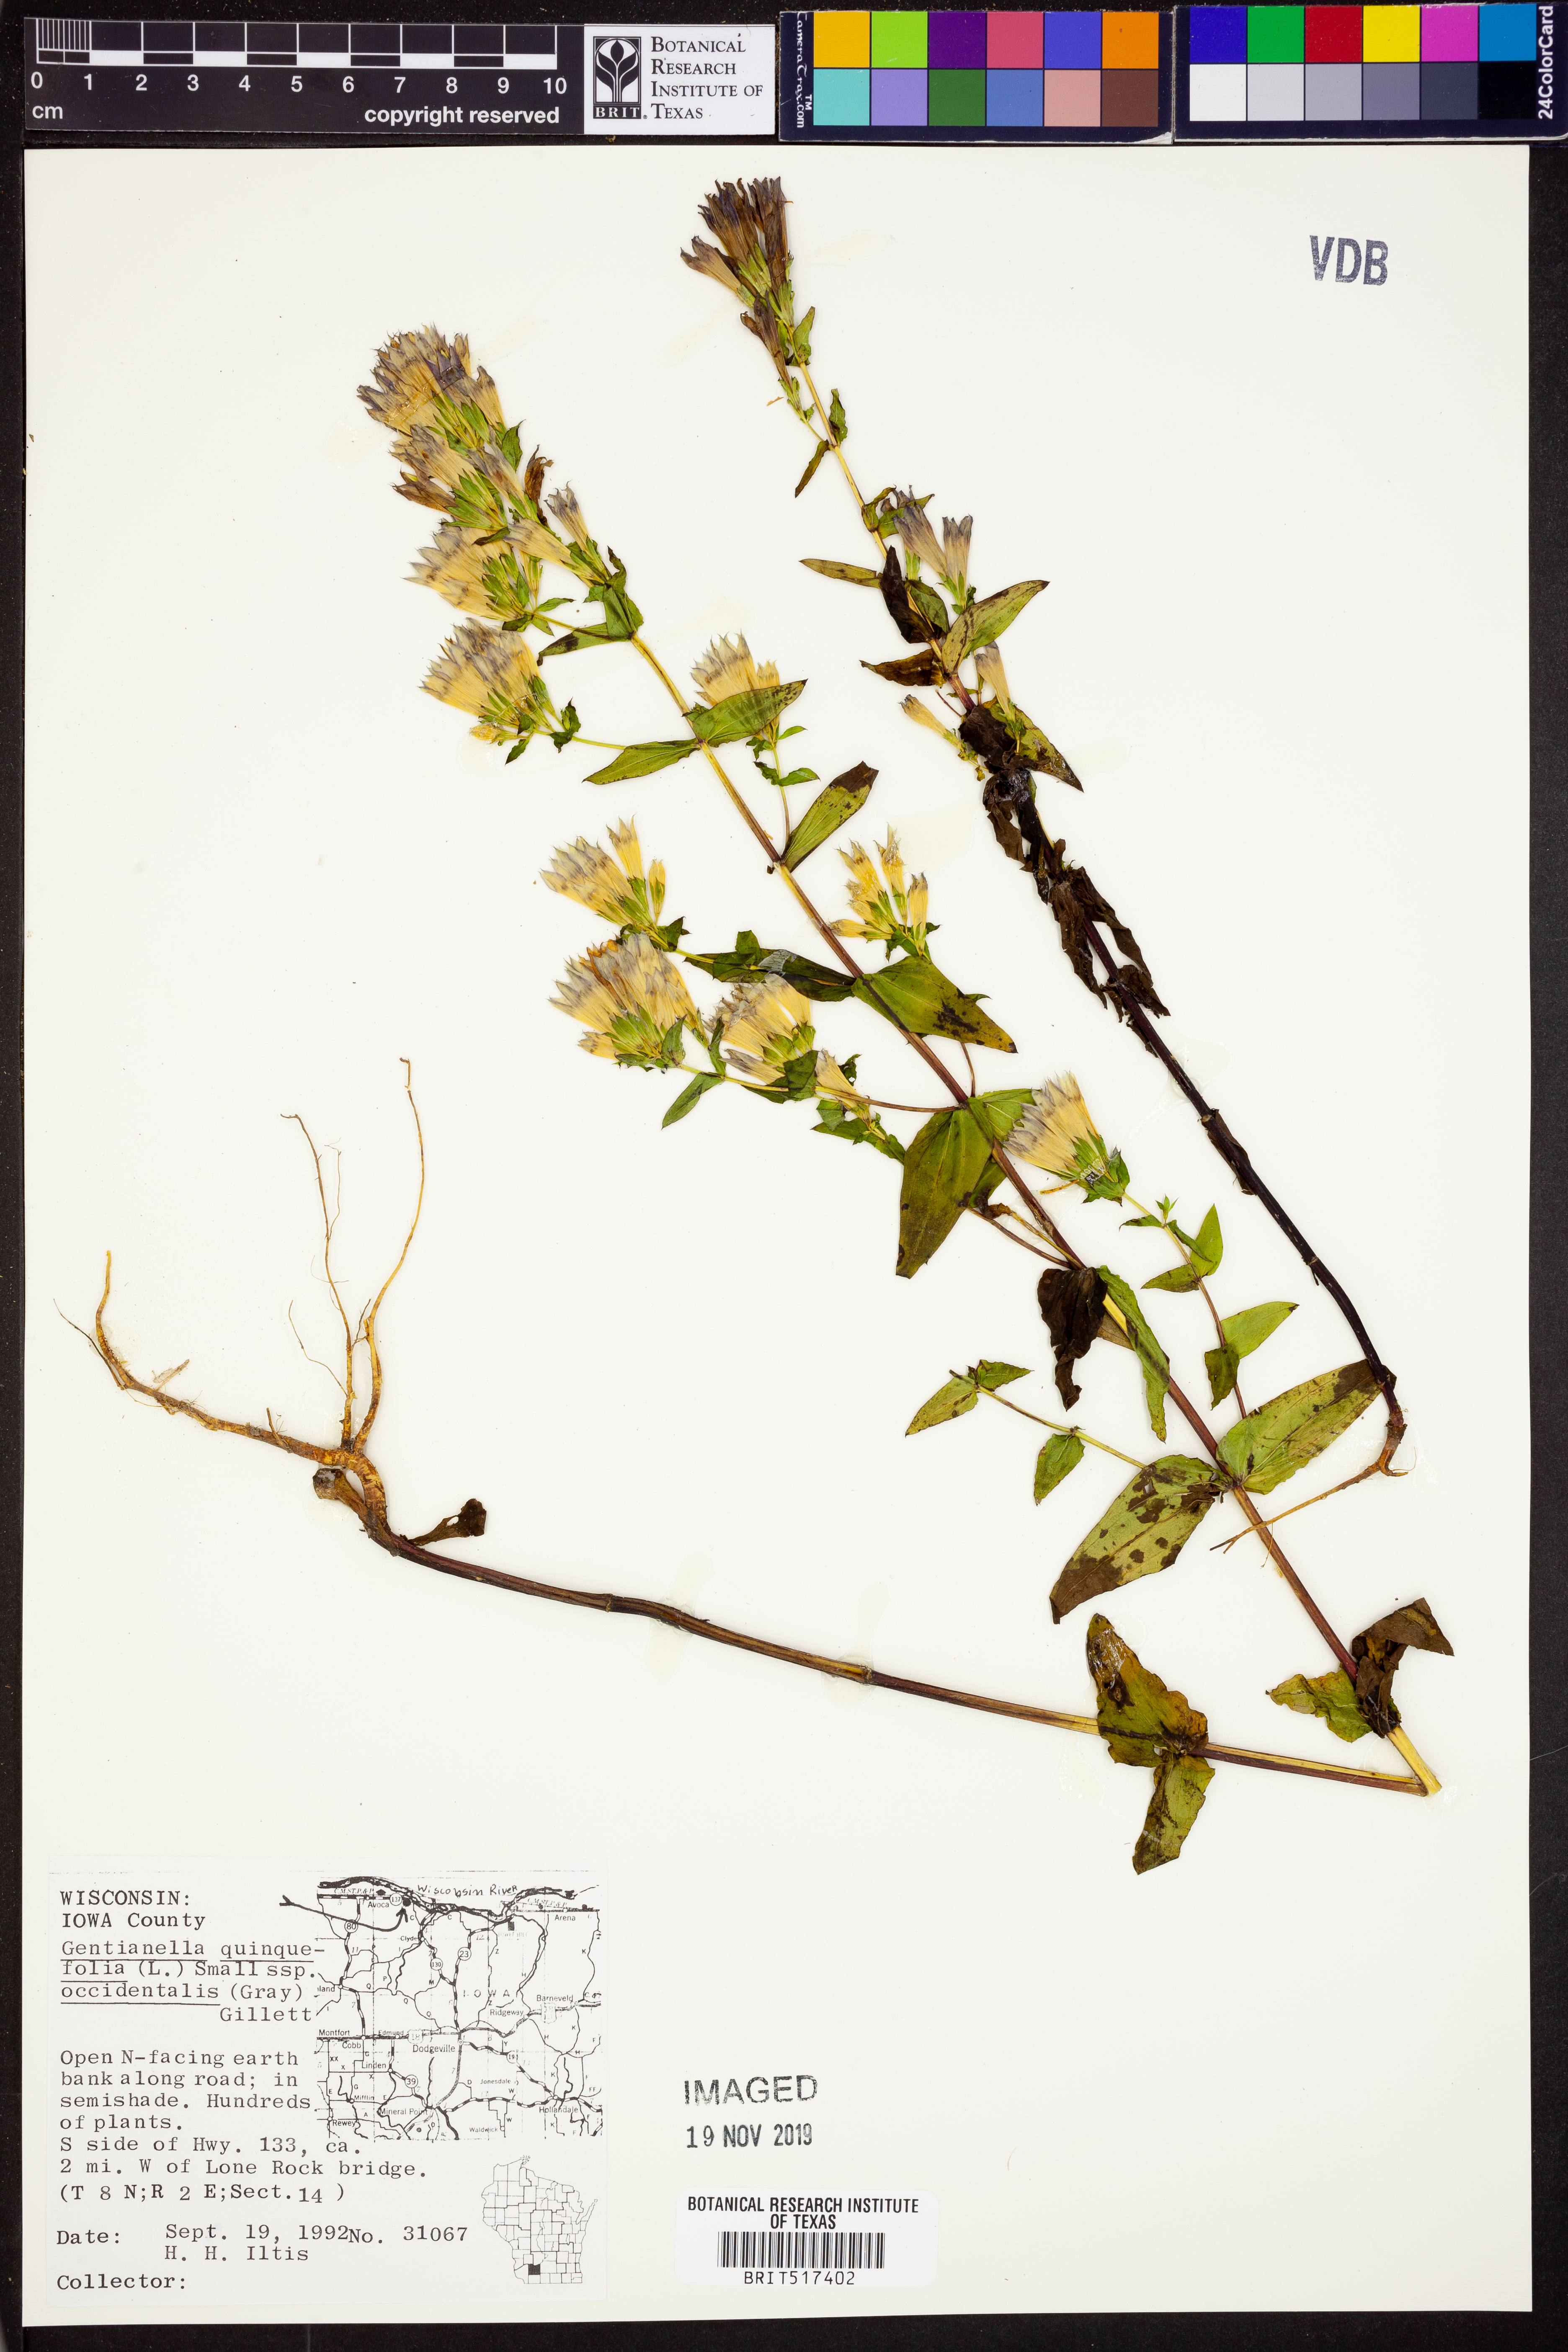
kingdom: Plantae
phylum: Tracheophyta
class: Magnoliopsida
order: Gentianales
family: Gentianaceae
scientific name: Gentianaceae
